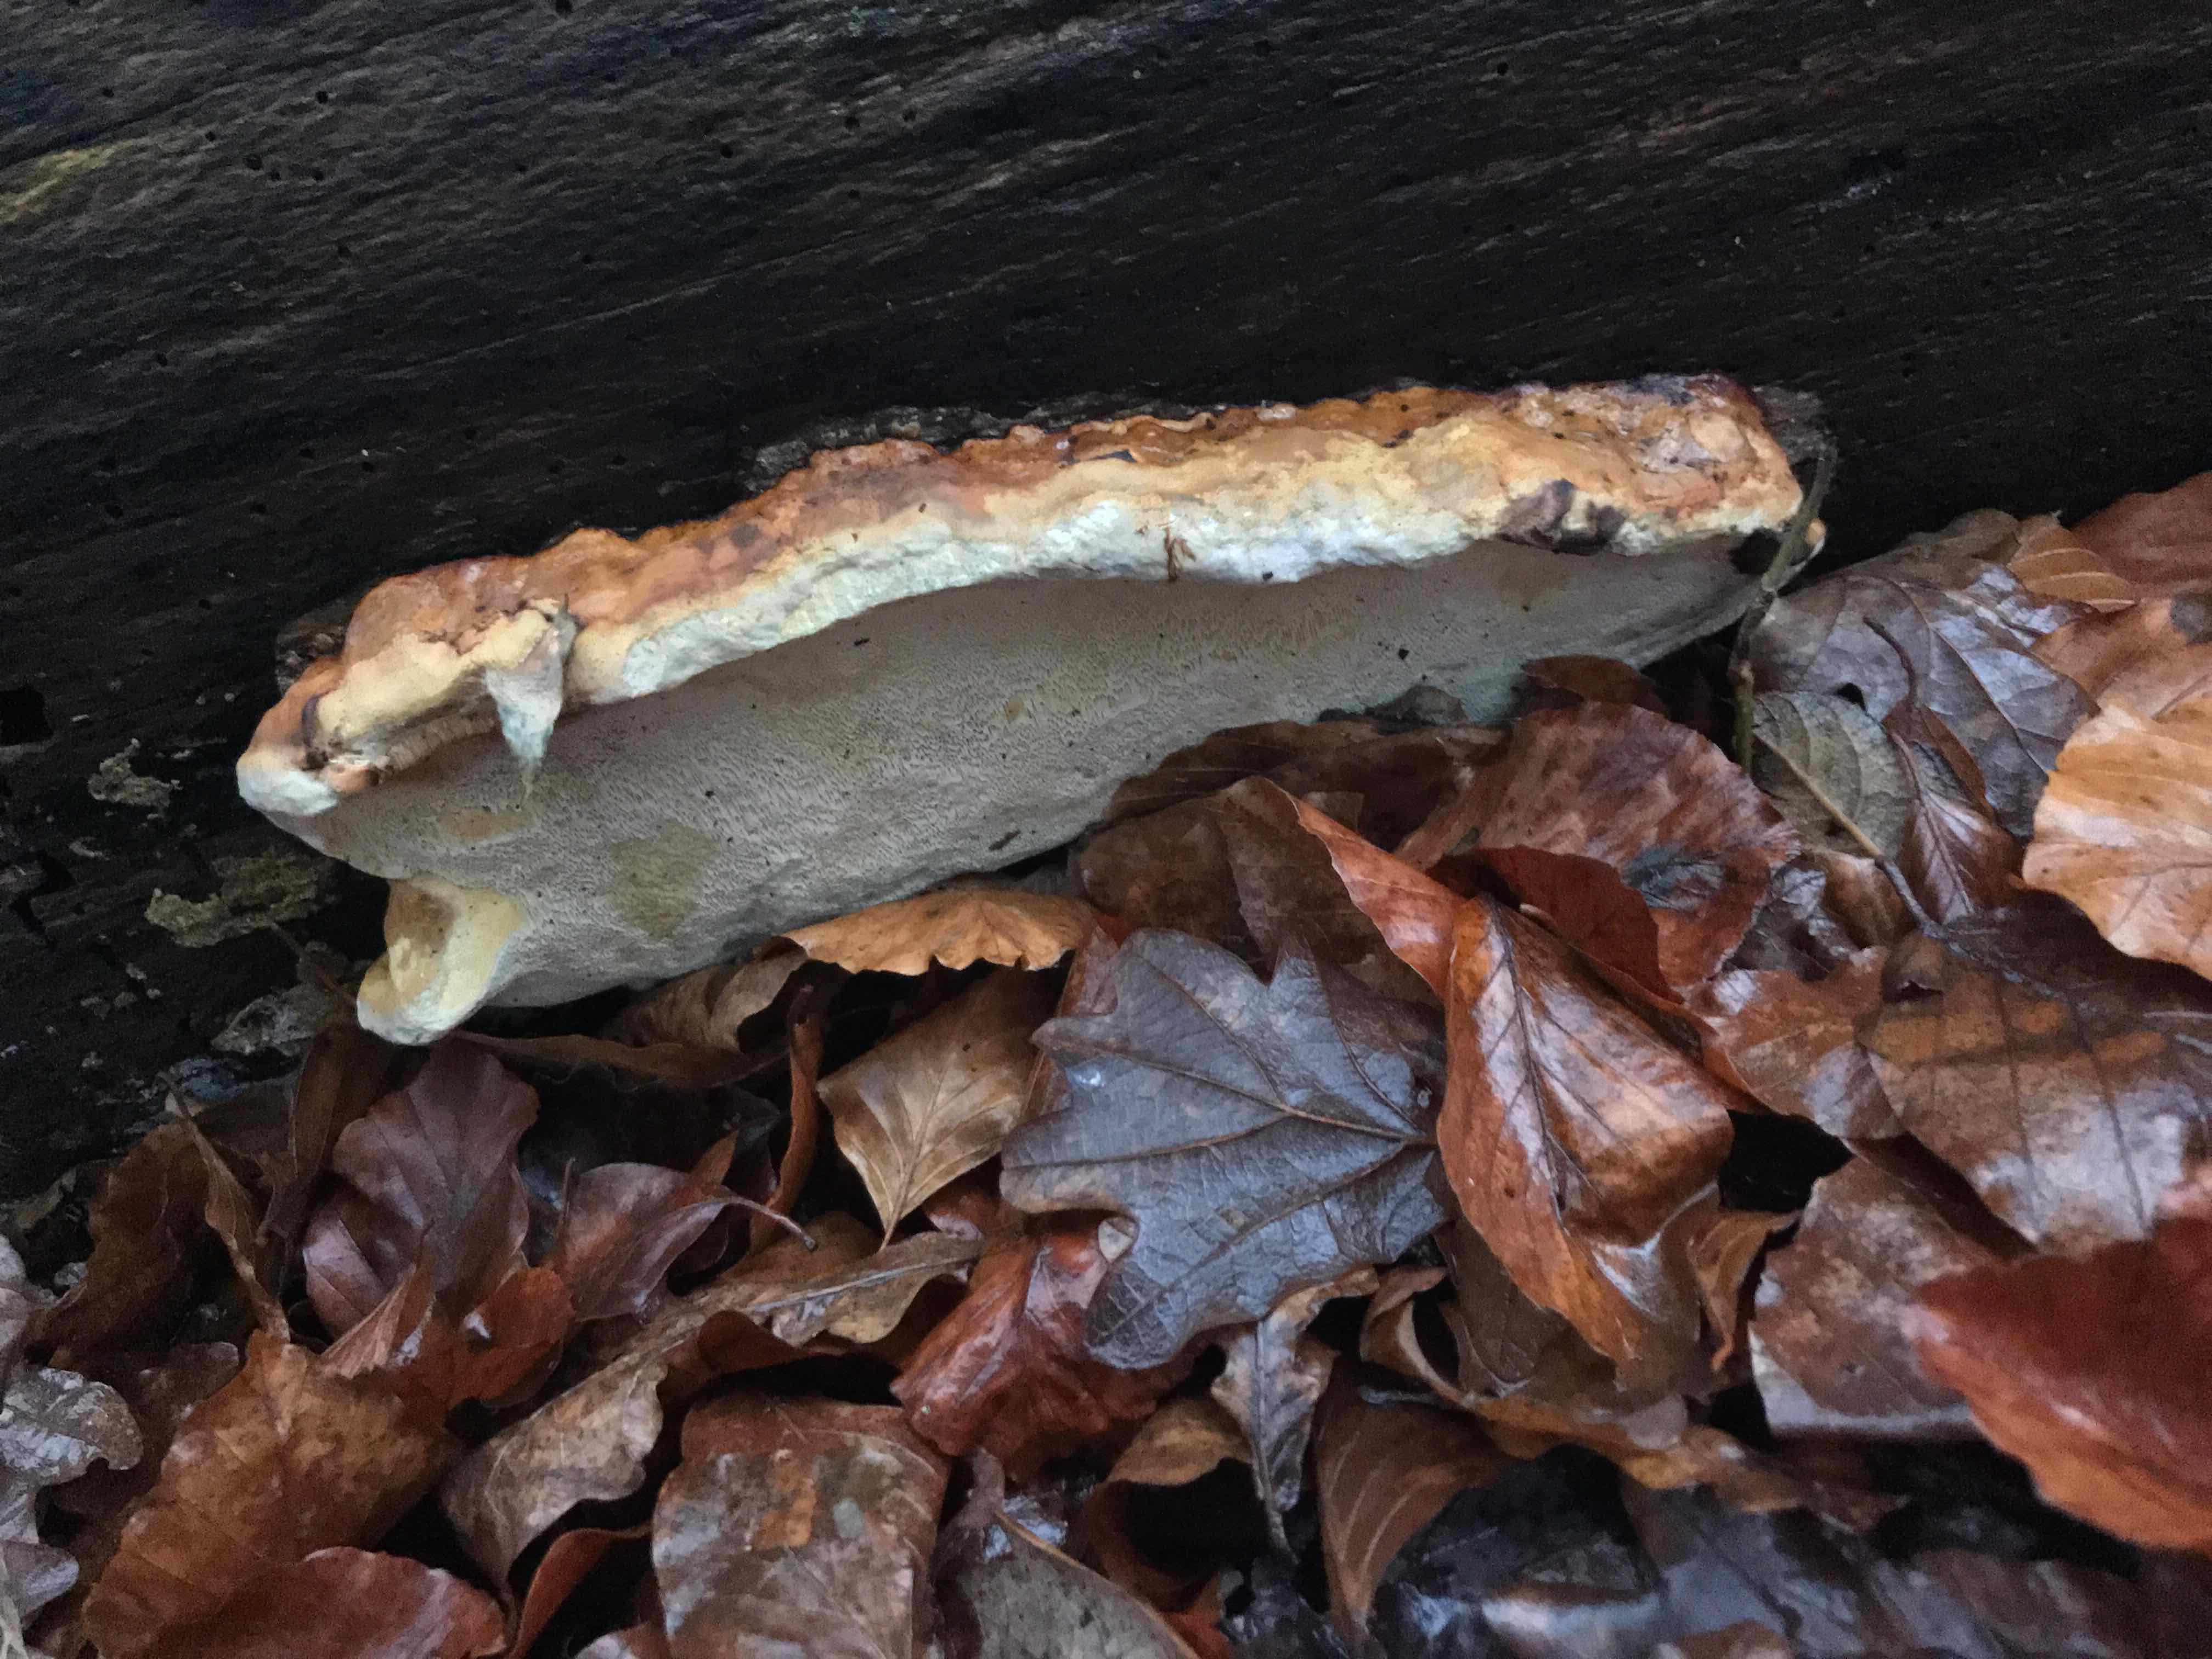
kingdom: Fungi
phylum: Basidiomycota
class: Agaricomycetes
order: Polyporales
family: Fomitopsidaceae
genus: Fomitopsis
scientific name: Fomitopsis pinicola
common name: randbæltet hovporesvamp
